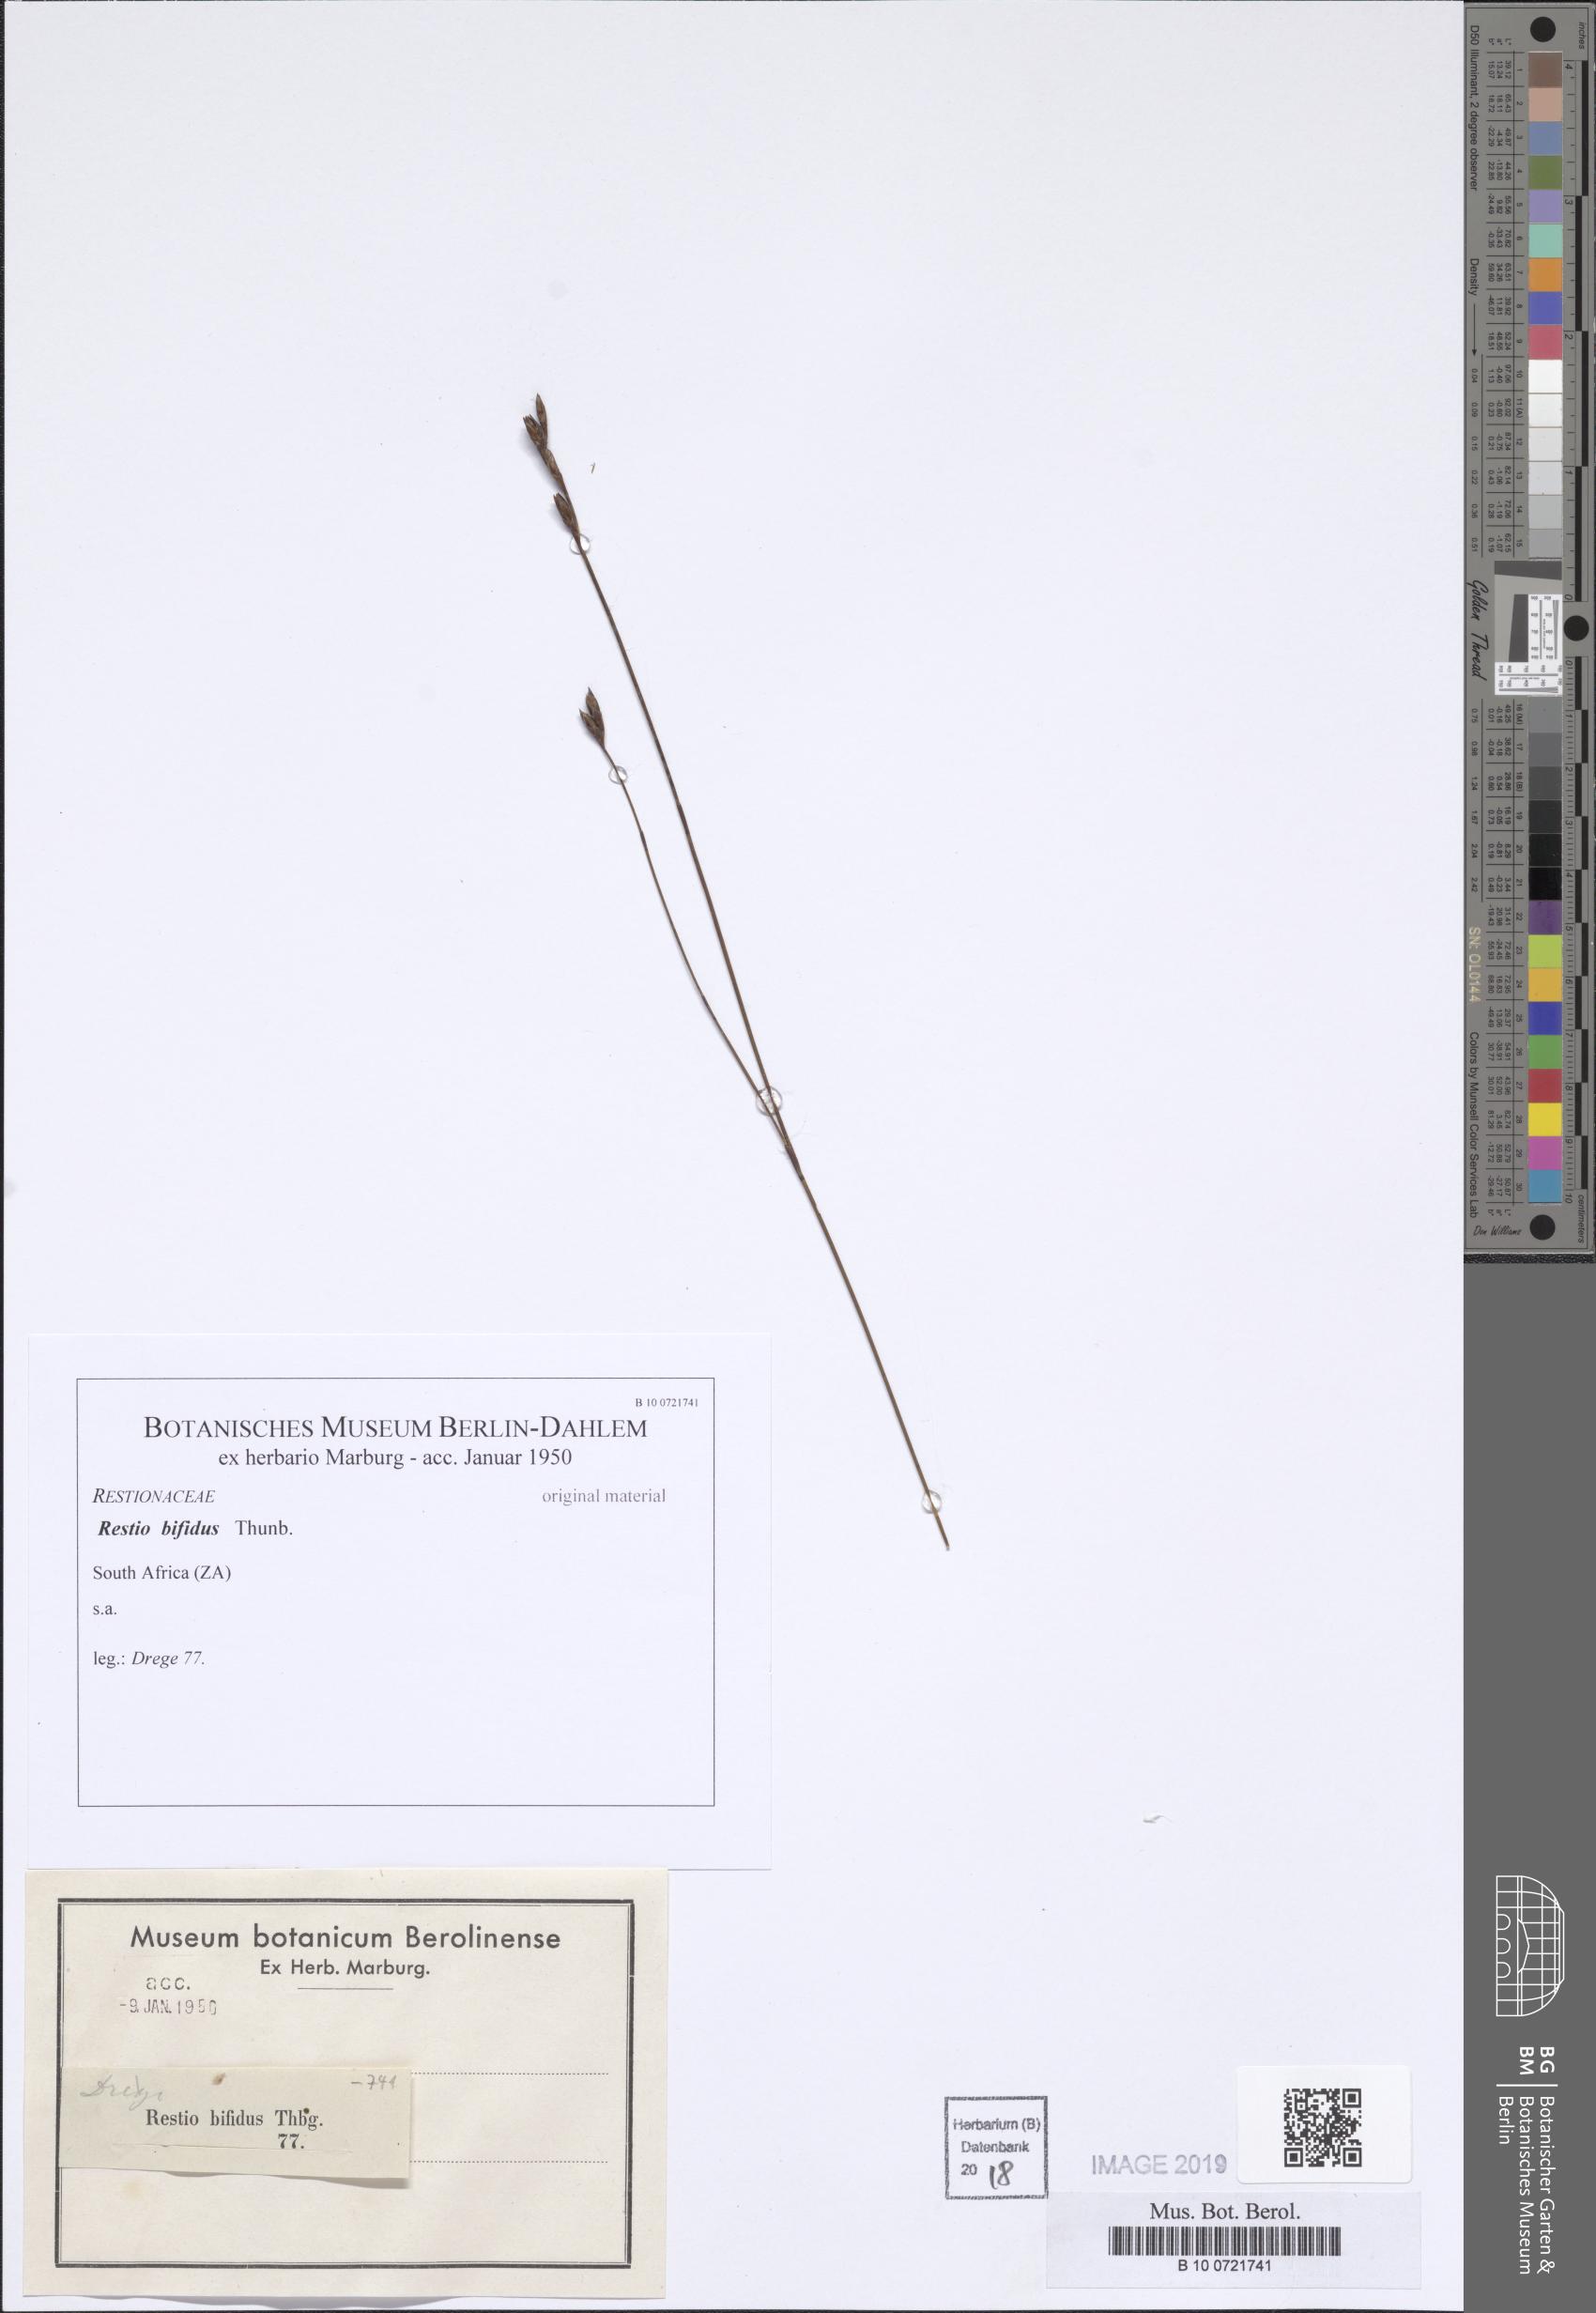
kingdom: Plantae
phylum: Tracheophyta
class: Liliopsida
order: Poales
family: Restionaceae
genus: Restio
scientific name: Restio bifidus
